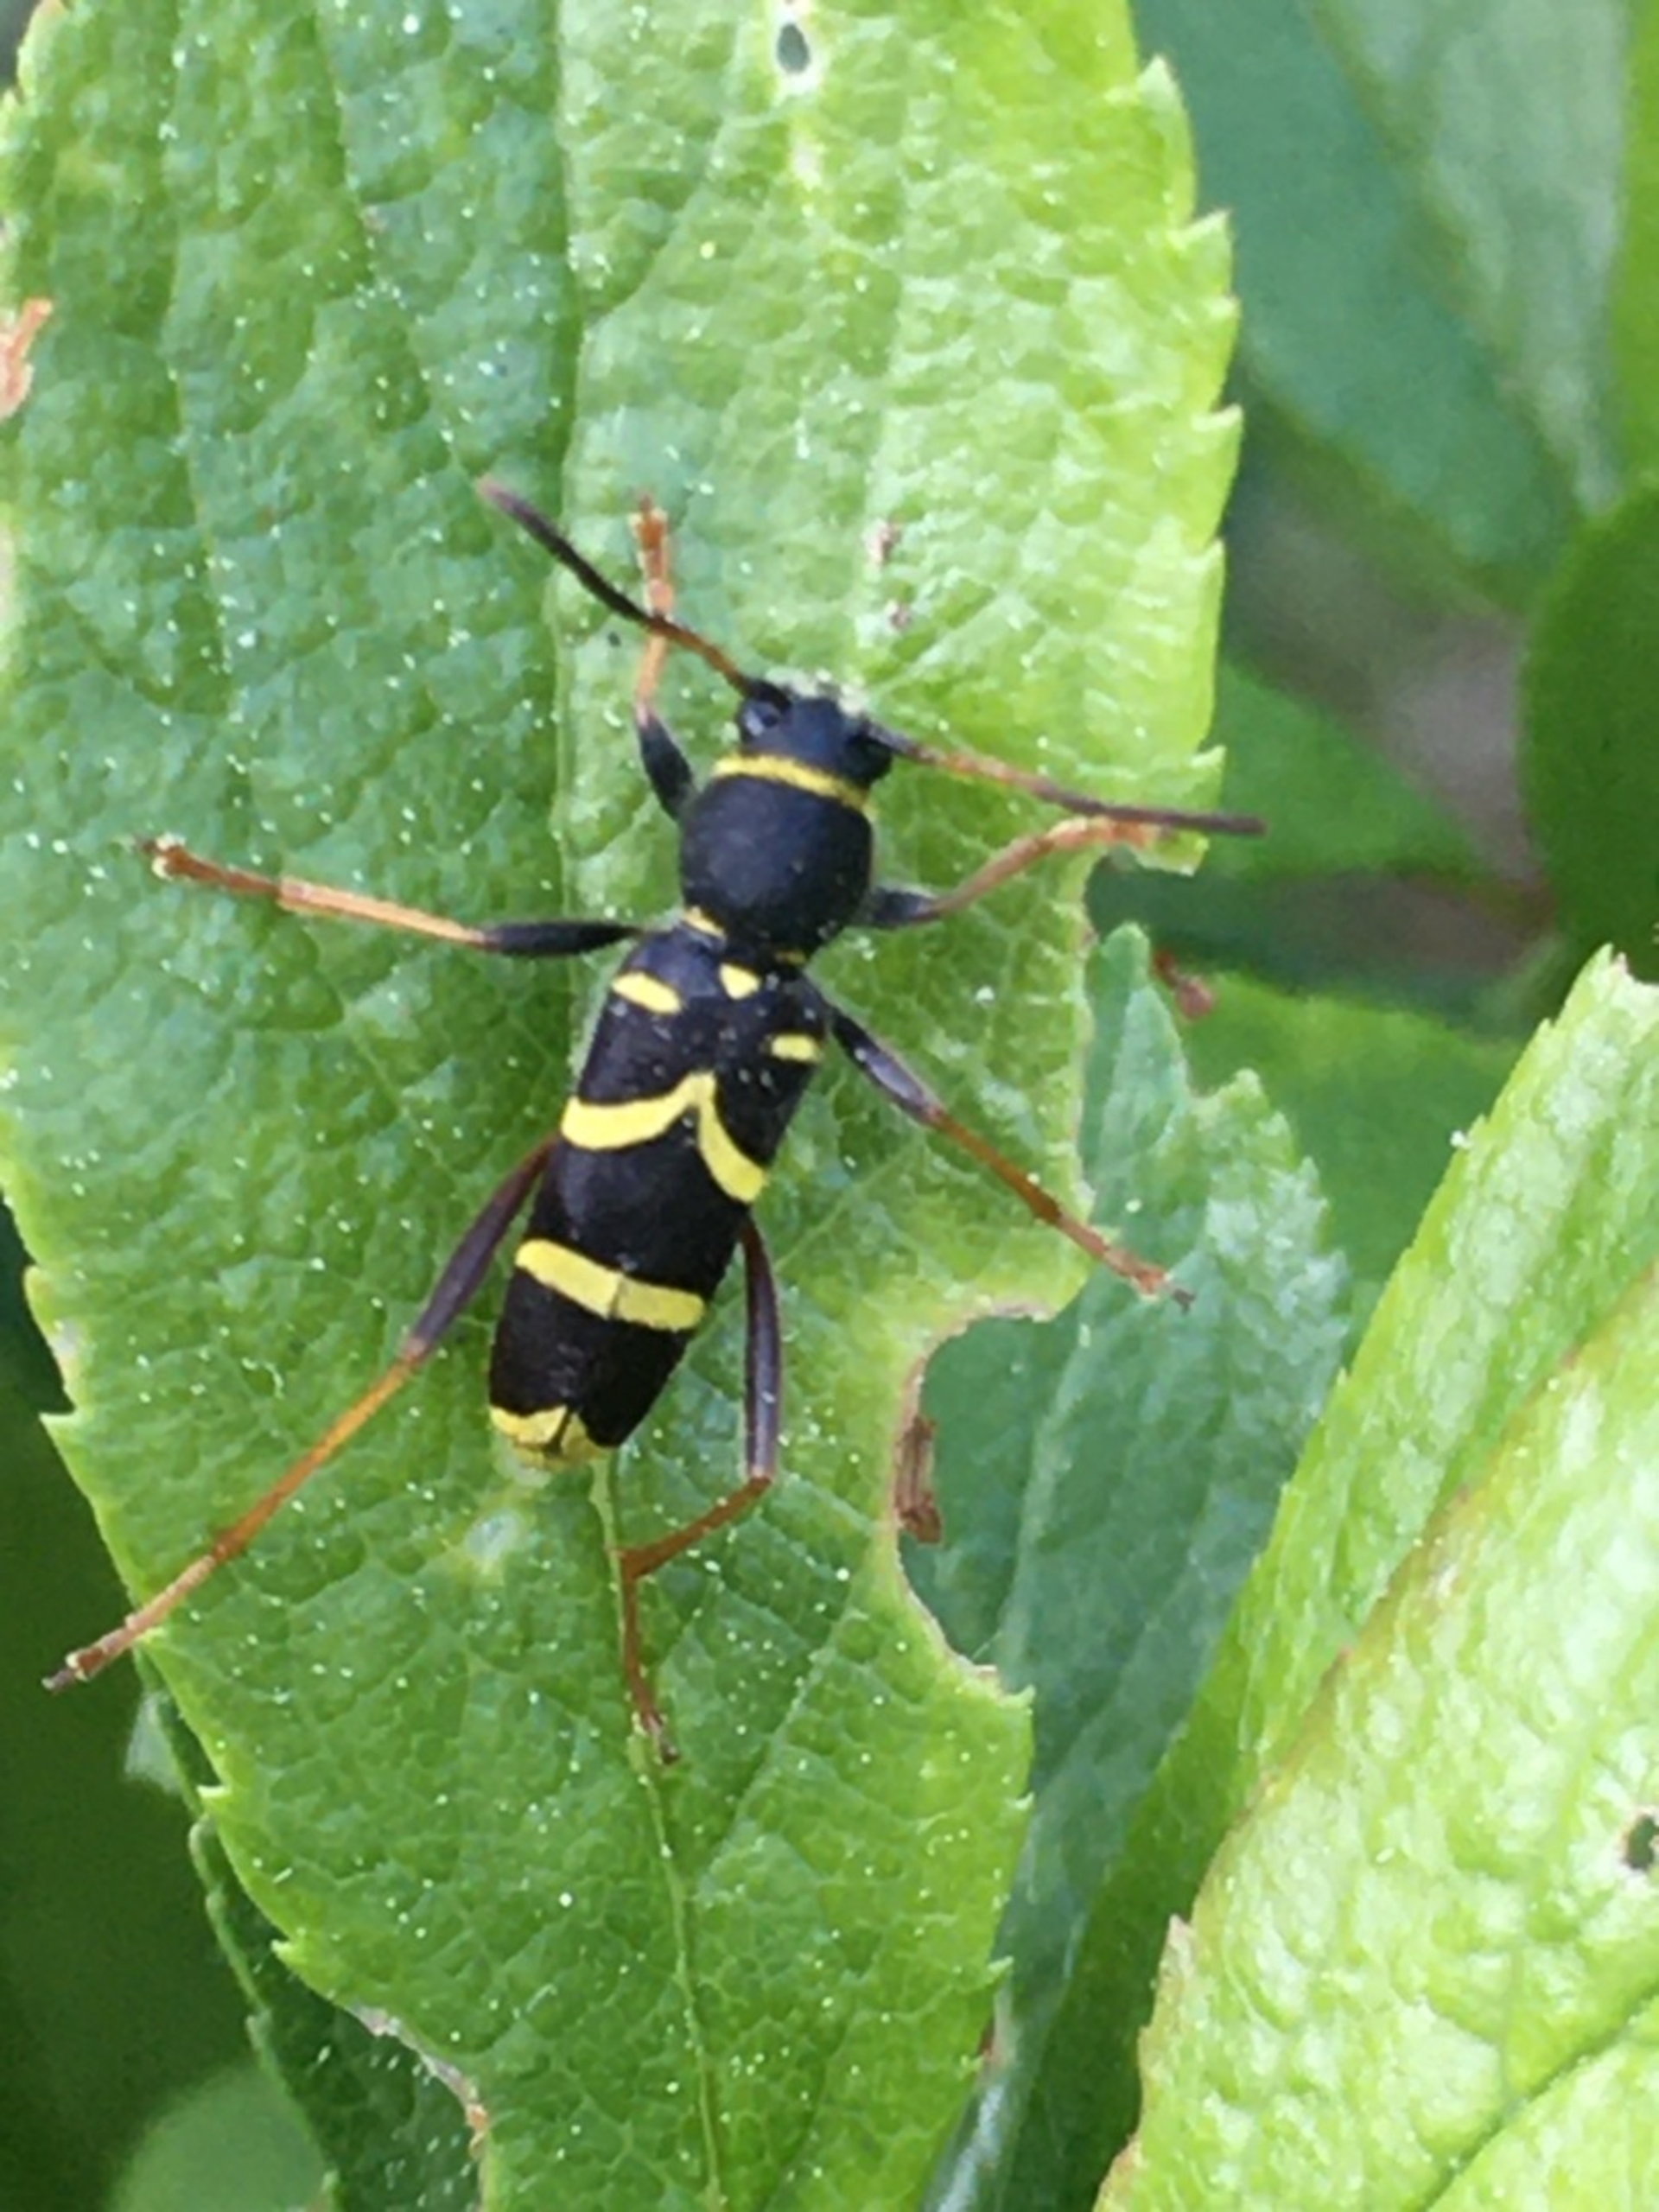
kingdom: Animalia
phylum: Arthropoda
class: Insecta
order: Coleoptera
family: Cerambycidae
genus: Clytus
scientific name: Clytus arietis
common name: Lille hvepsebuk
